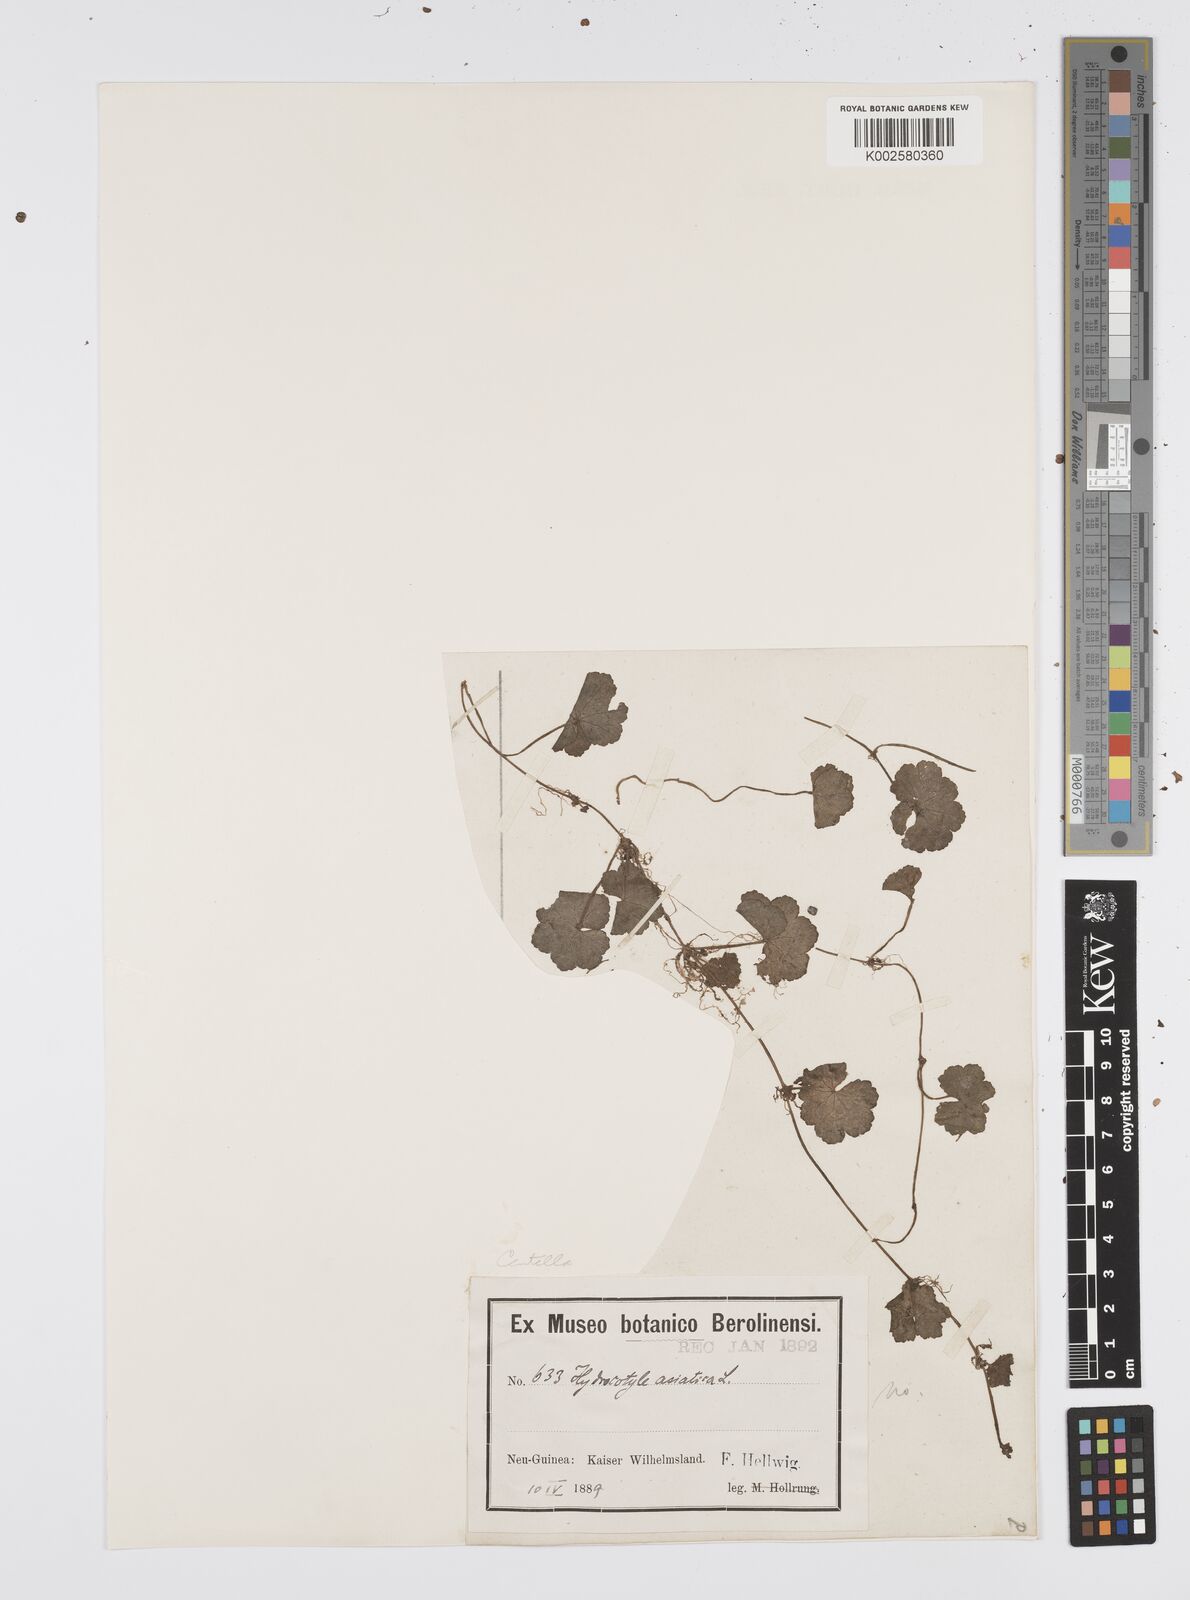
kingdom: Plantae
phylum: Tracheophyta
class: Magnoliopsida
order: Apiales
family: Apiaceae
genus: Centella
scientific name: Centella
